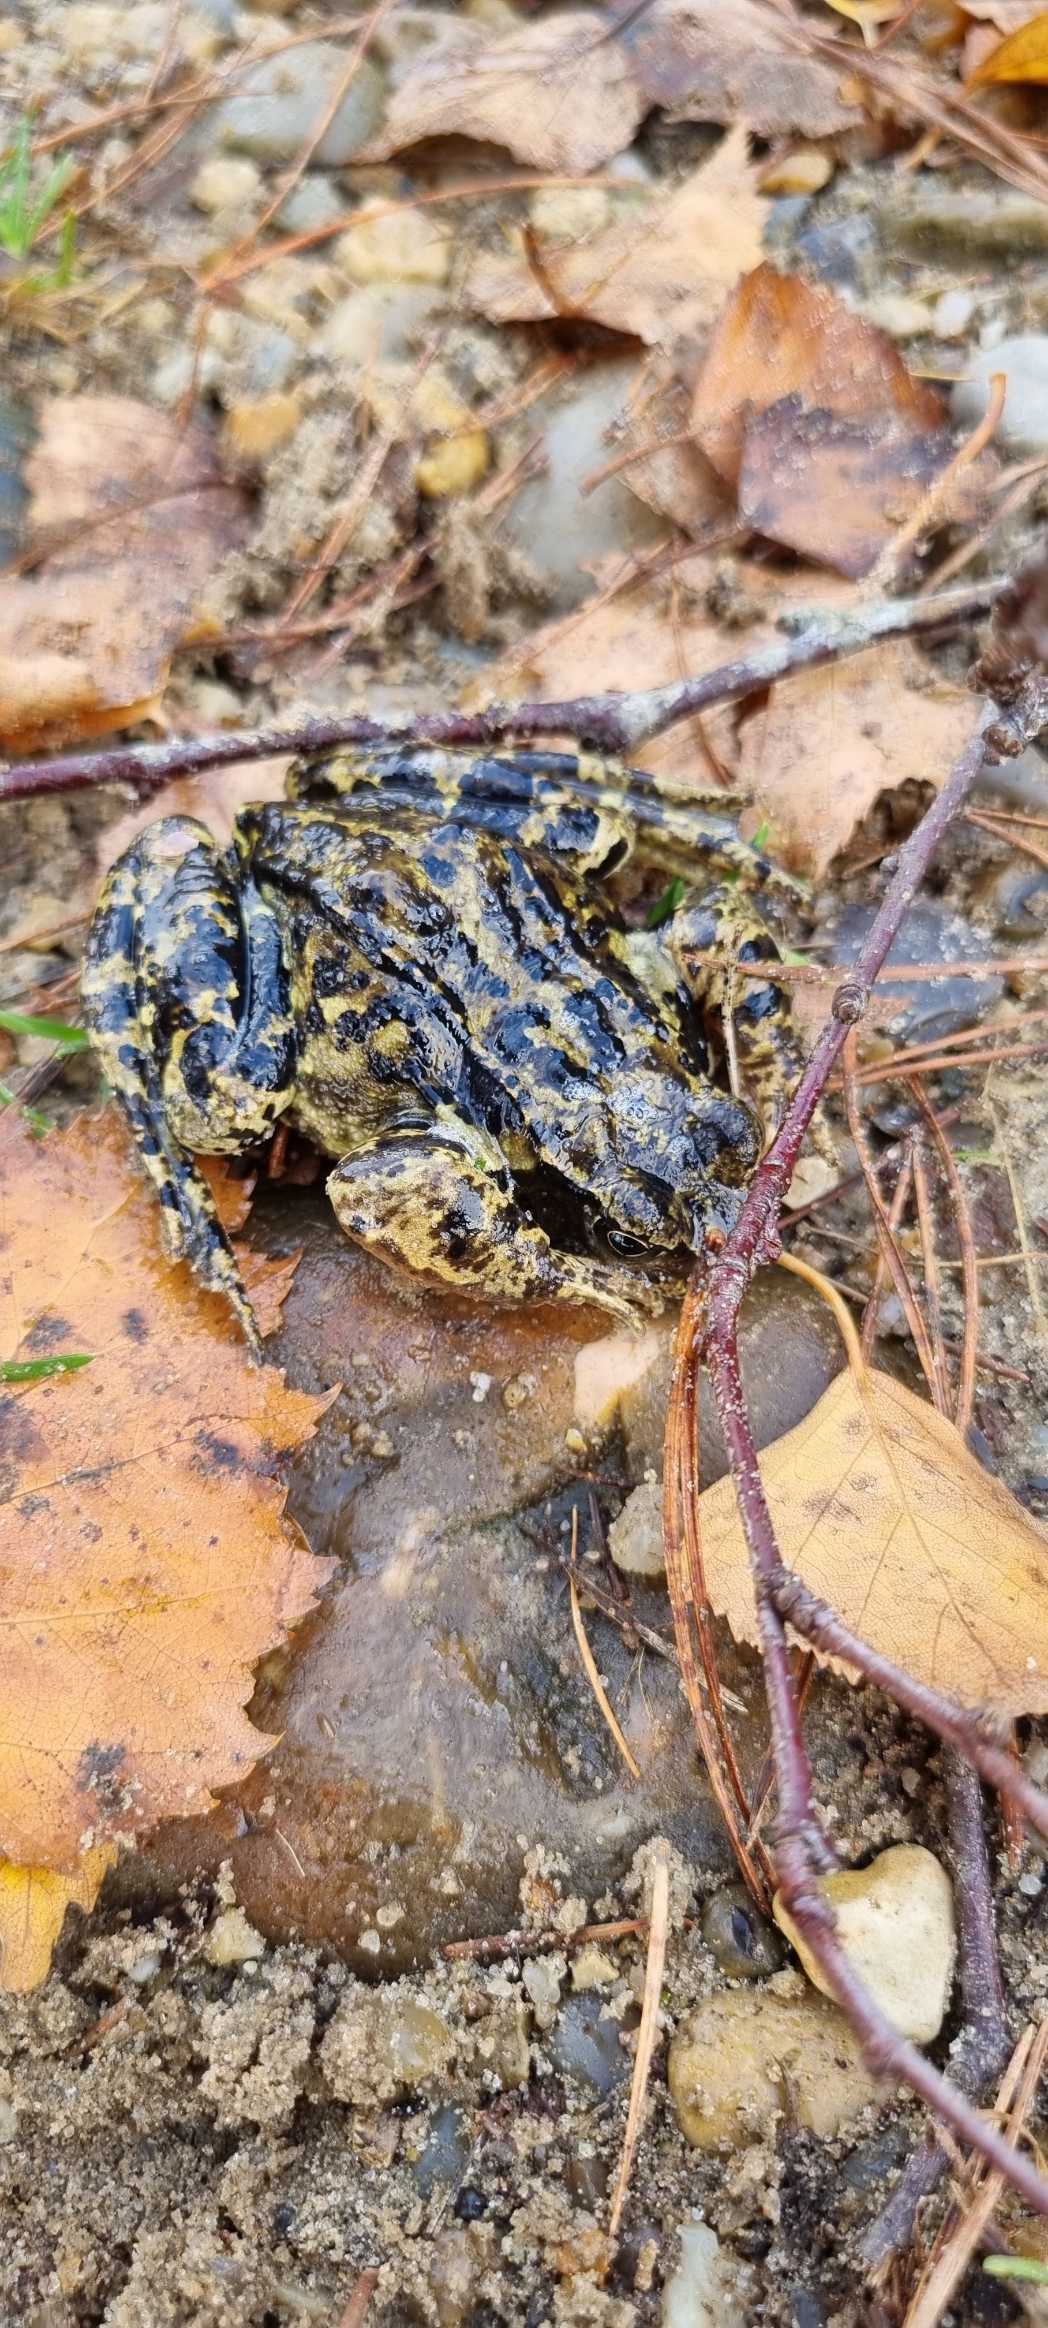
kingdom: Animalia
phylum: Chordata
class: Amphibia
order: Anura
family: Ranidae
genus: Rana
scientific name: Rana temporaria
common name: Butsnudet frø
